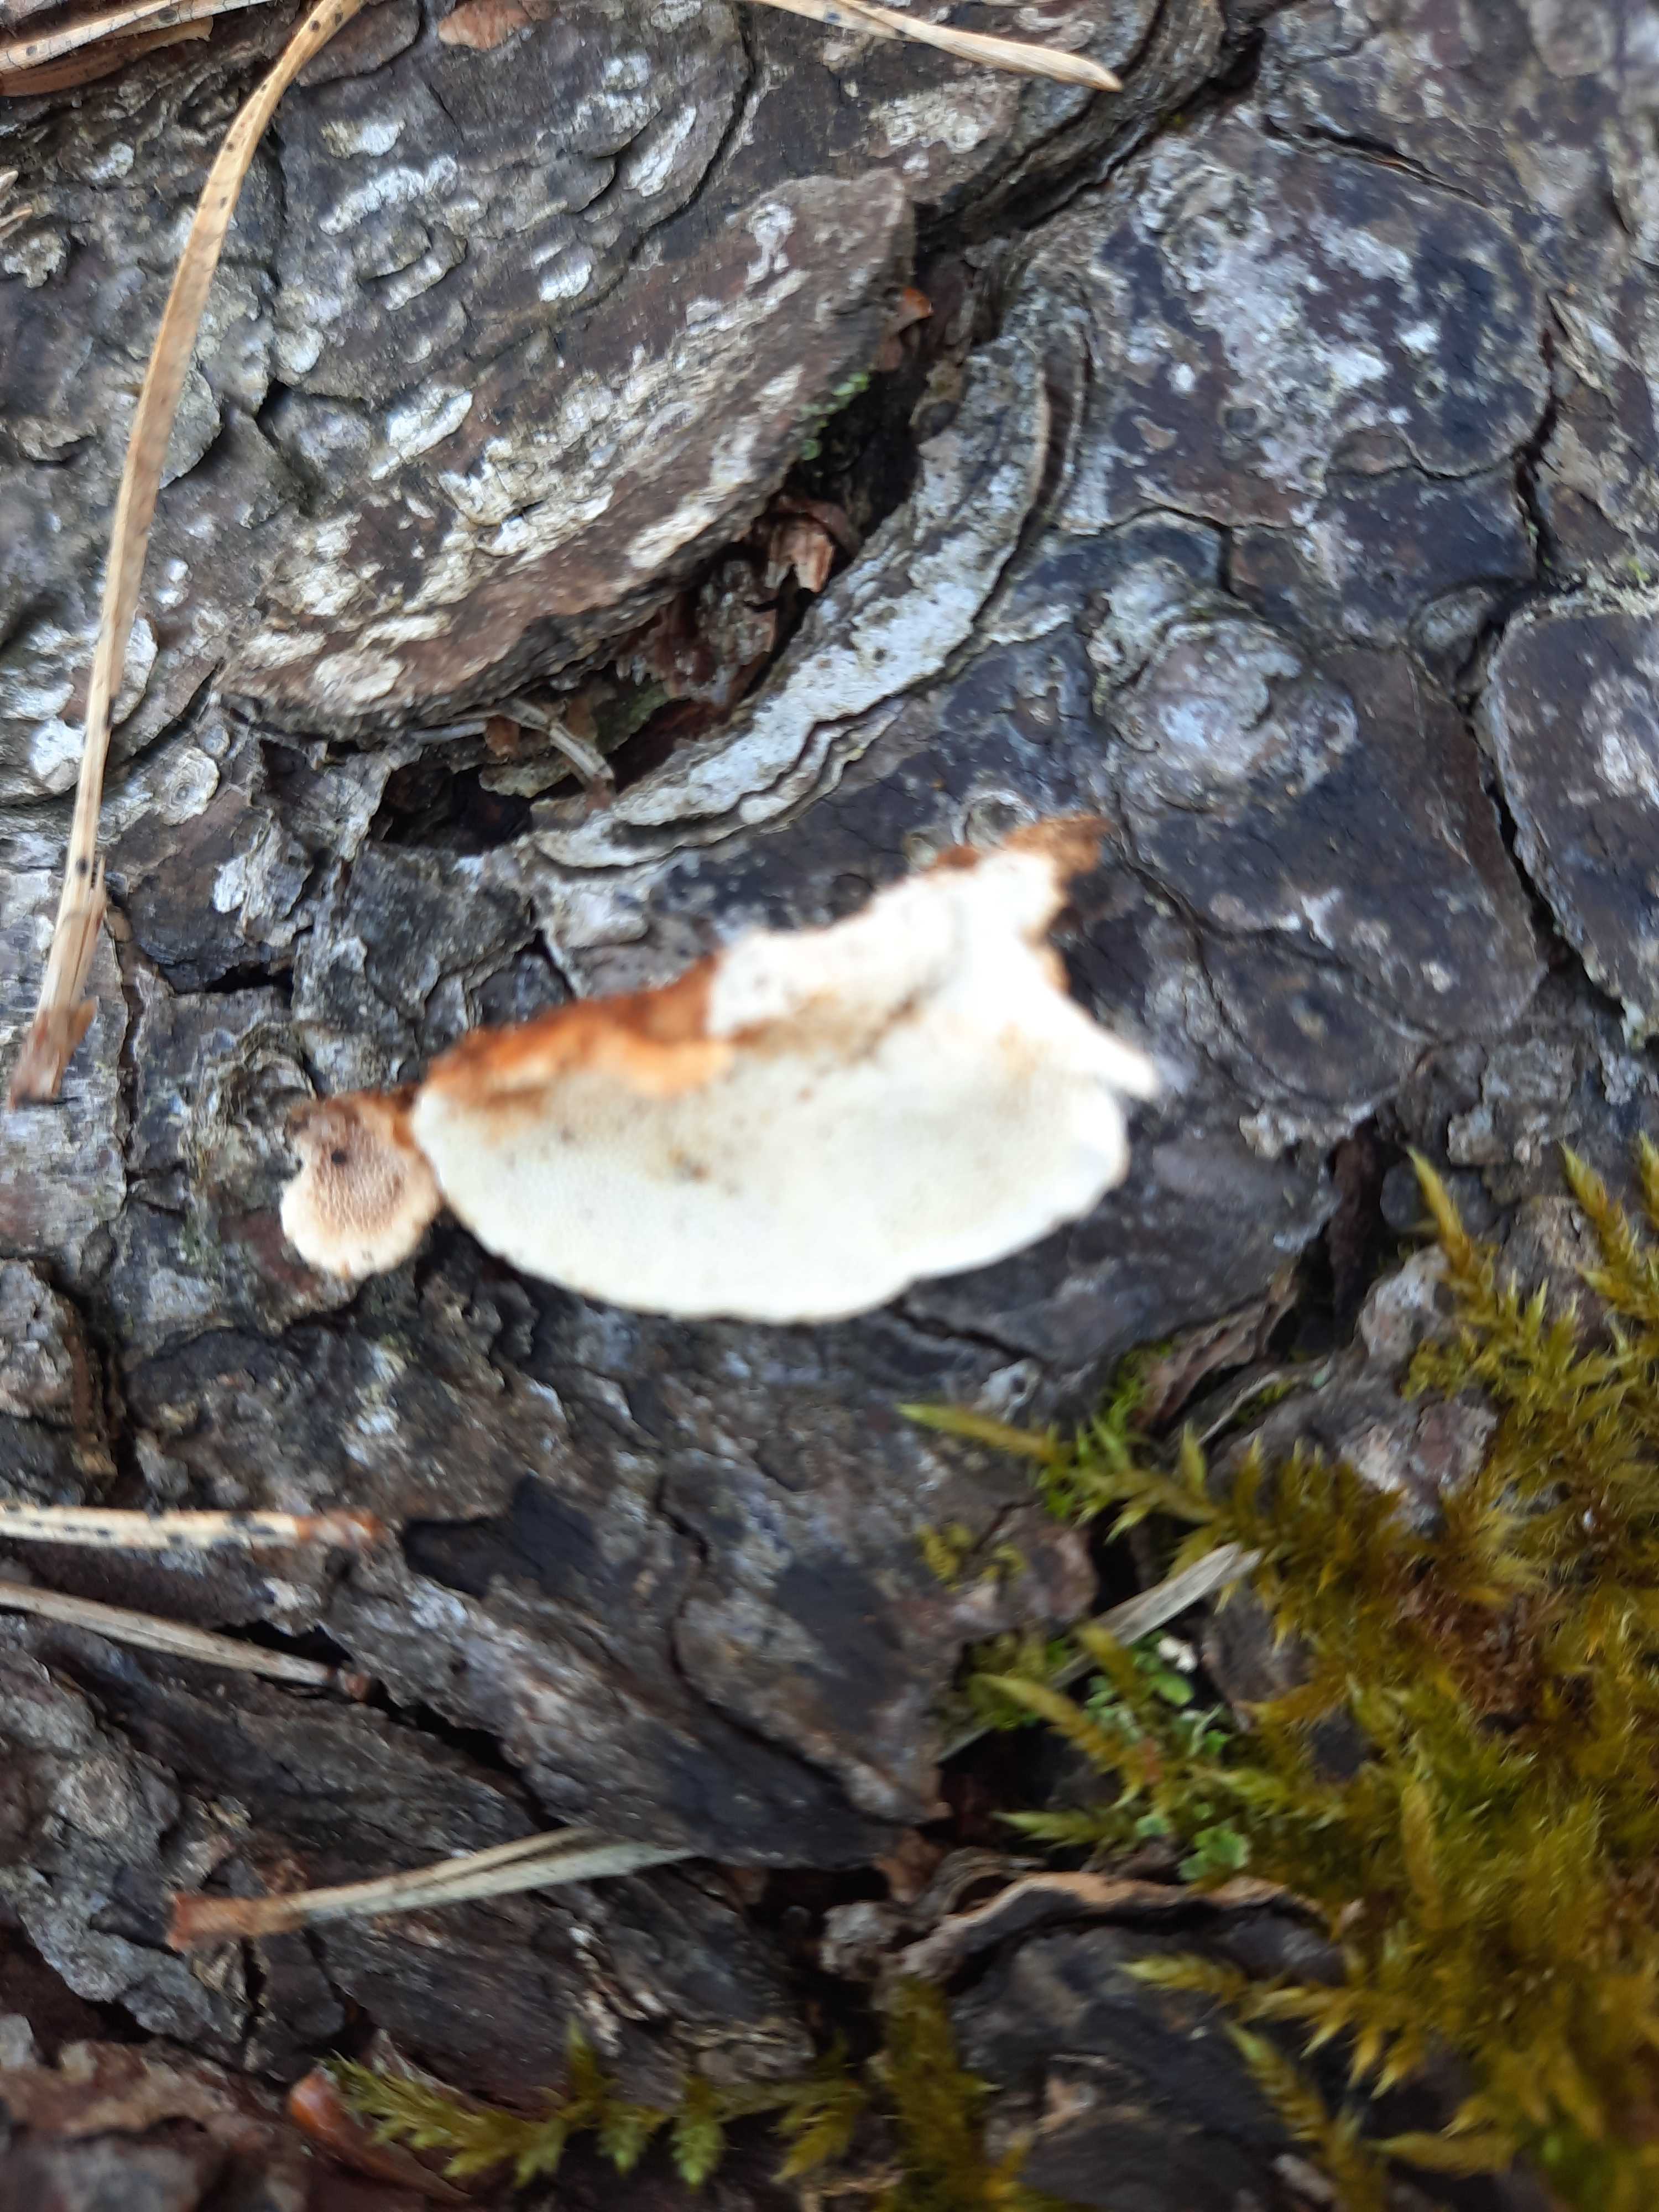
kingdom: Fungi
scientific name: Fungi
